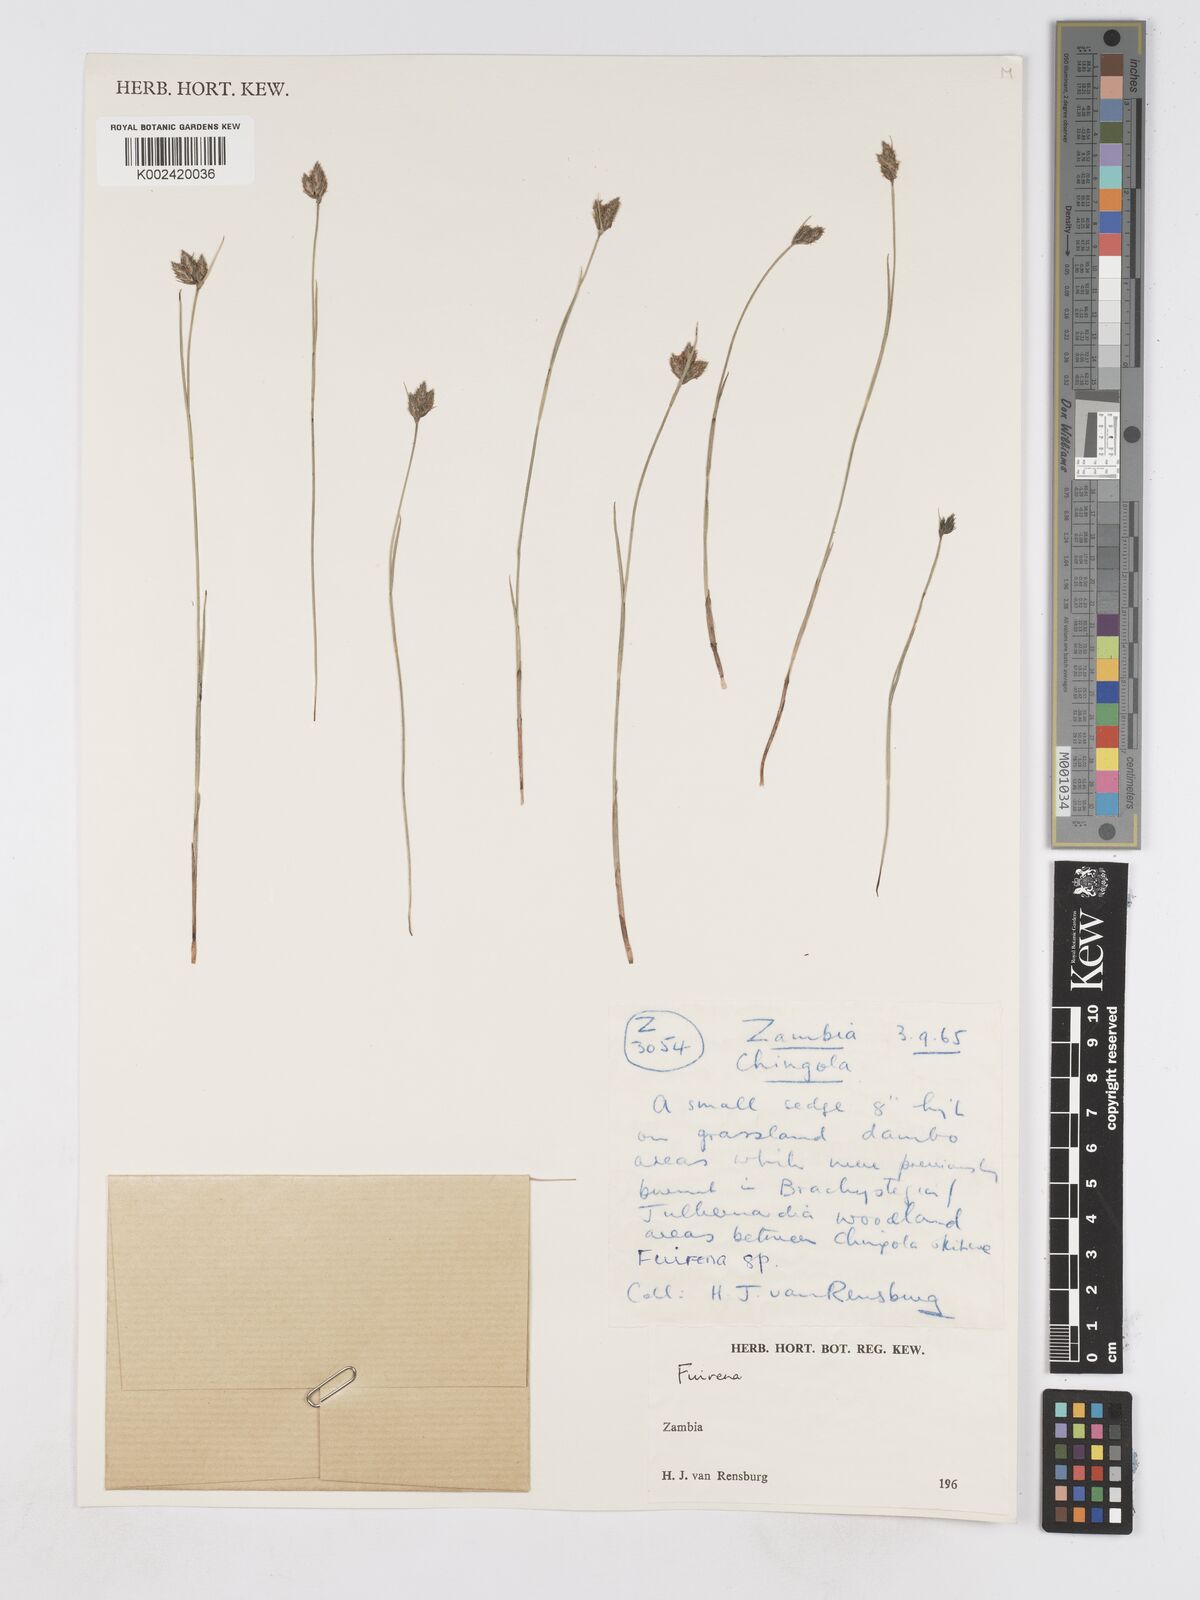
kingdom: Plantae
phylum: Tracheophyta
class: Liliopsida
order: Poales
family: Cyperaceae
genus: Fuirena
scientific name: Fuirena
